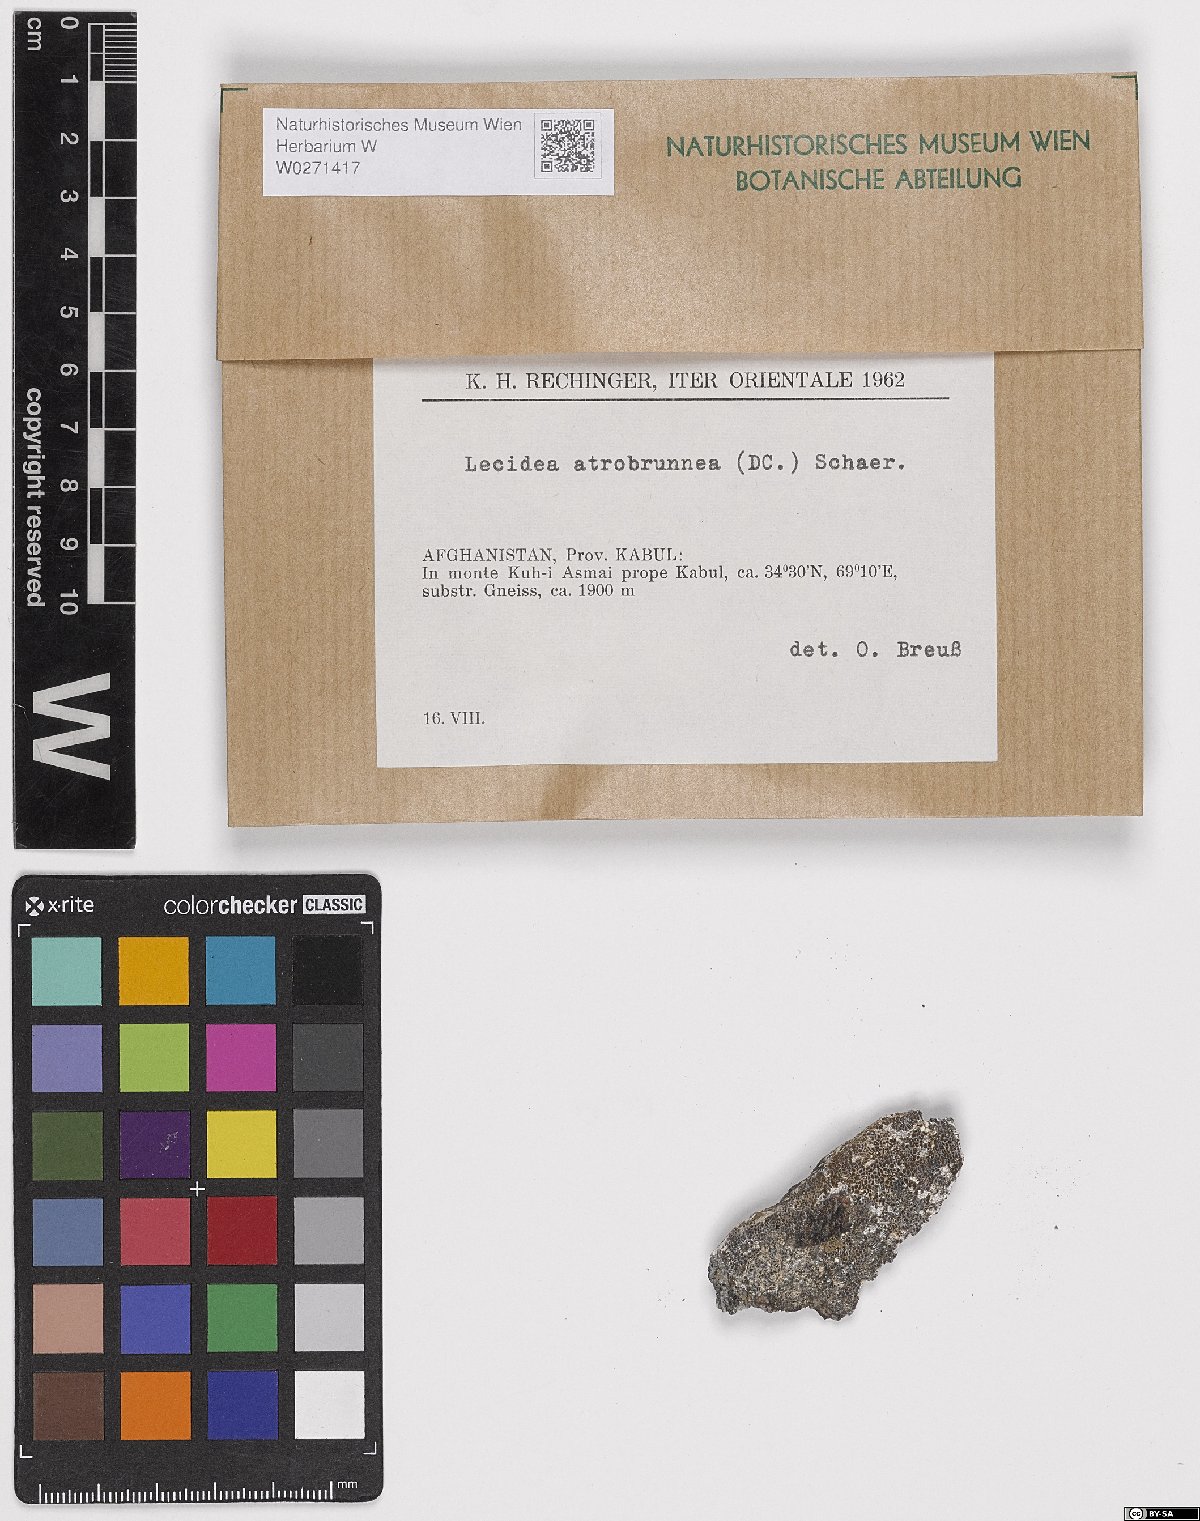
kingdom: Fungi
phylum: Ascomycota
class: Lecanoromycetes
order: Lecideales
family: Lecideaceae
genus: Lecidea
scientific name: Lecidea atrobrunnea
